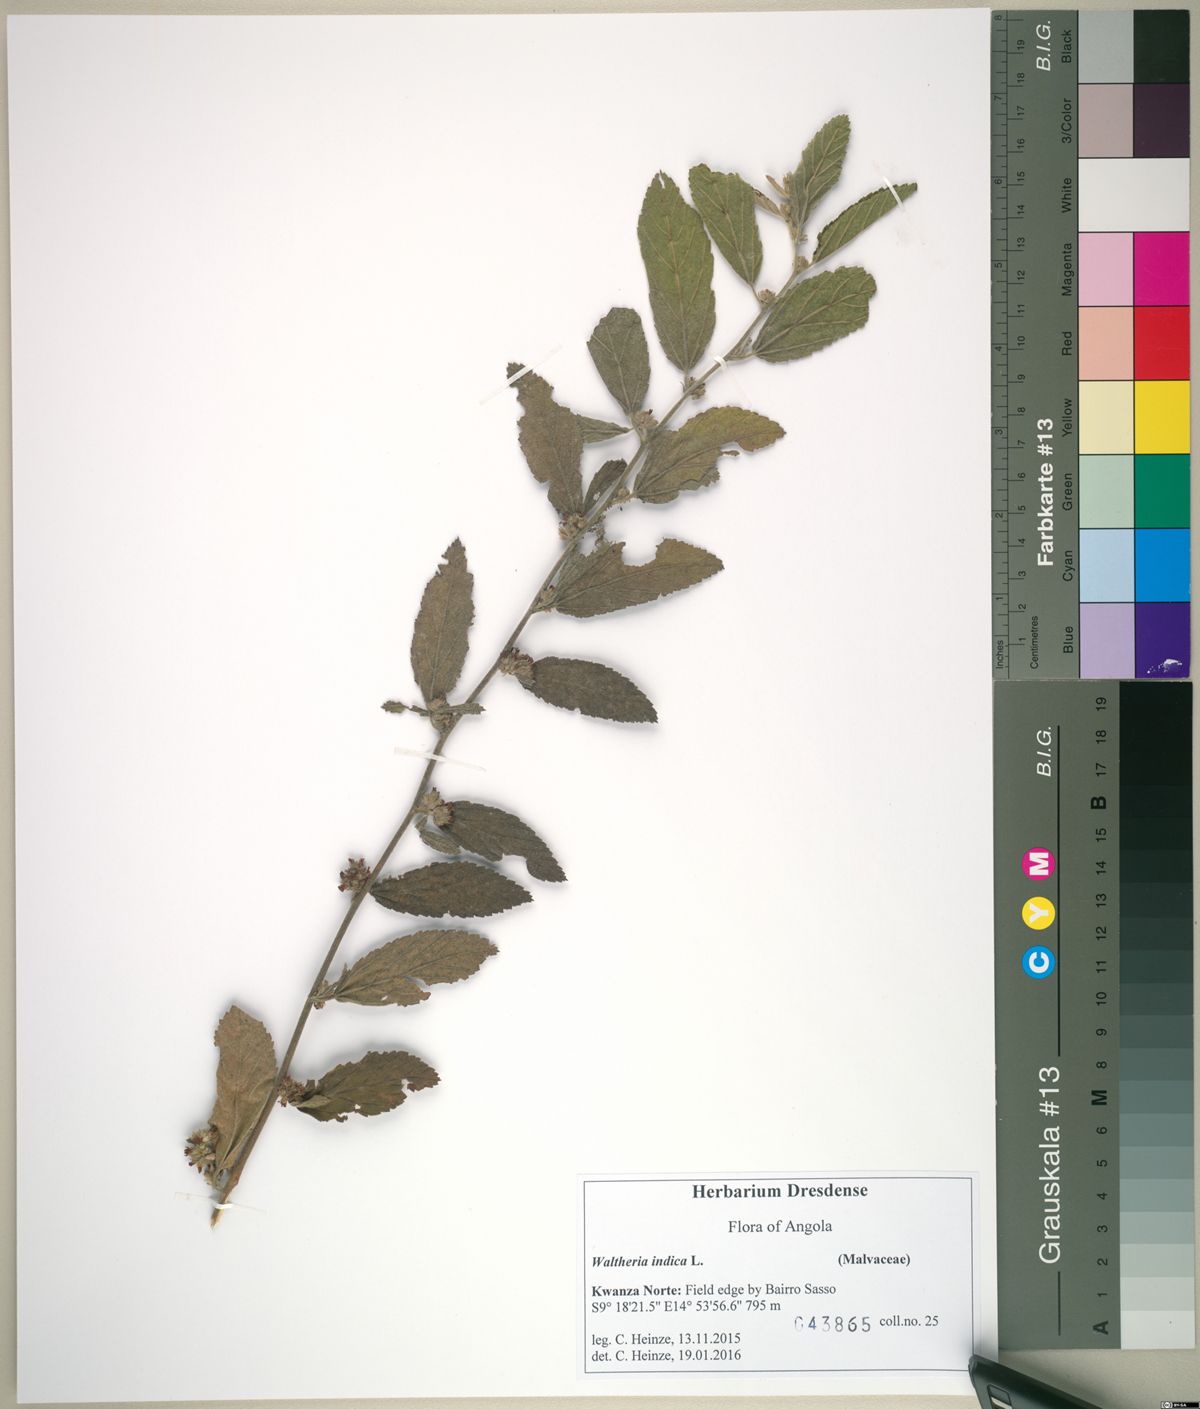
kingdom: Plantae
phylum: Tracheophyta
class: Magnoliopsida
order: Malvales
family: Malvaceae
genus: Waltheria
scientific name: Waltheria indica
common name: Leather-coat
